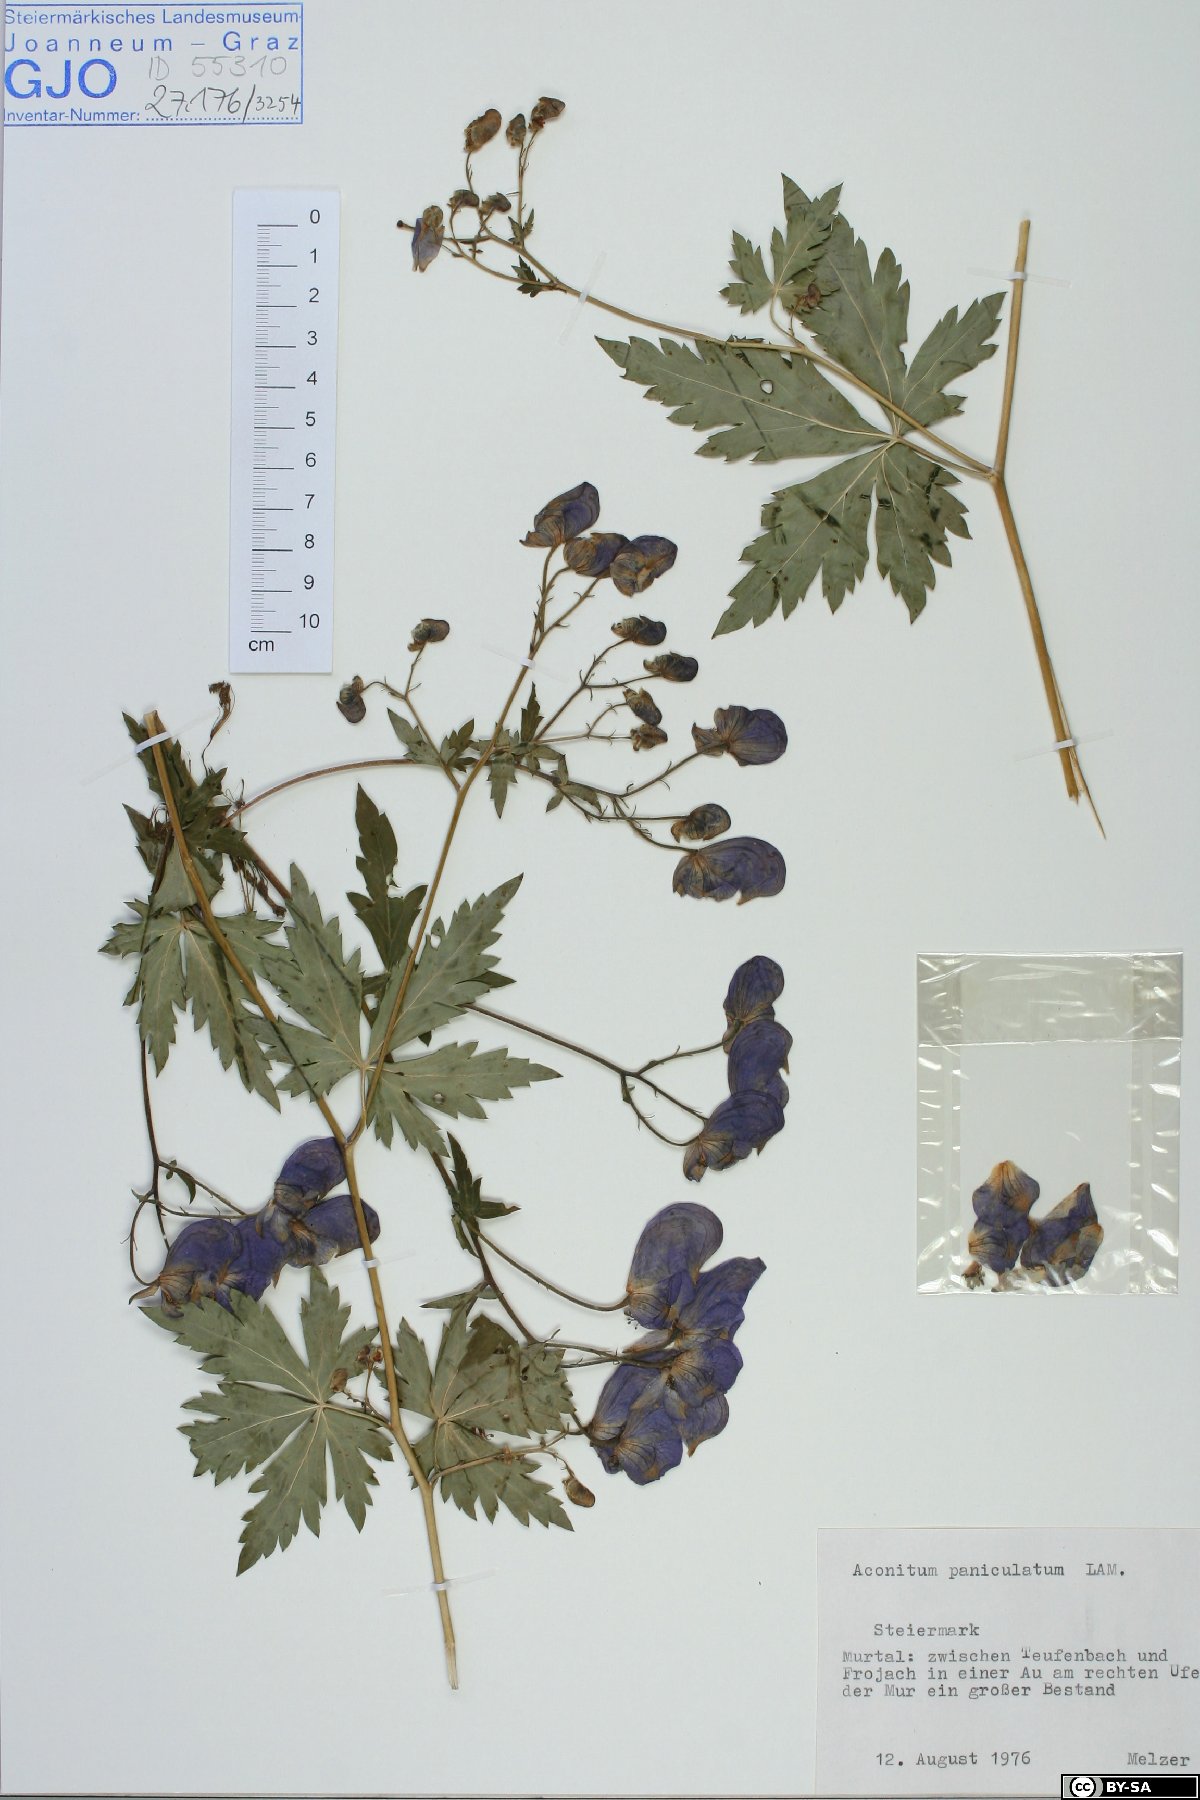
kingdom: Plantae
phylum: Tracheophyta
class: Magnoliopsida
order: Ranunculales
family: Ranunculaceae
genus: Aconitum
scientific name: Aconitum degenii
